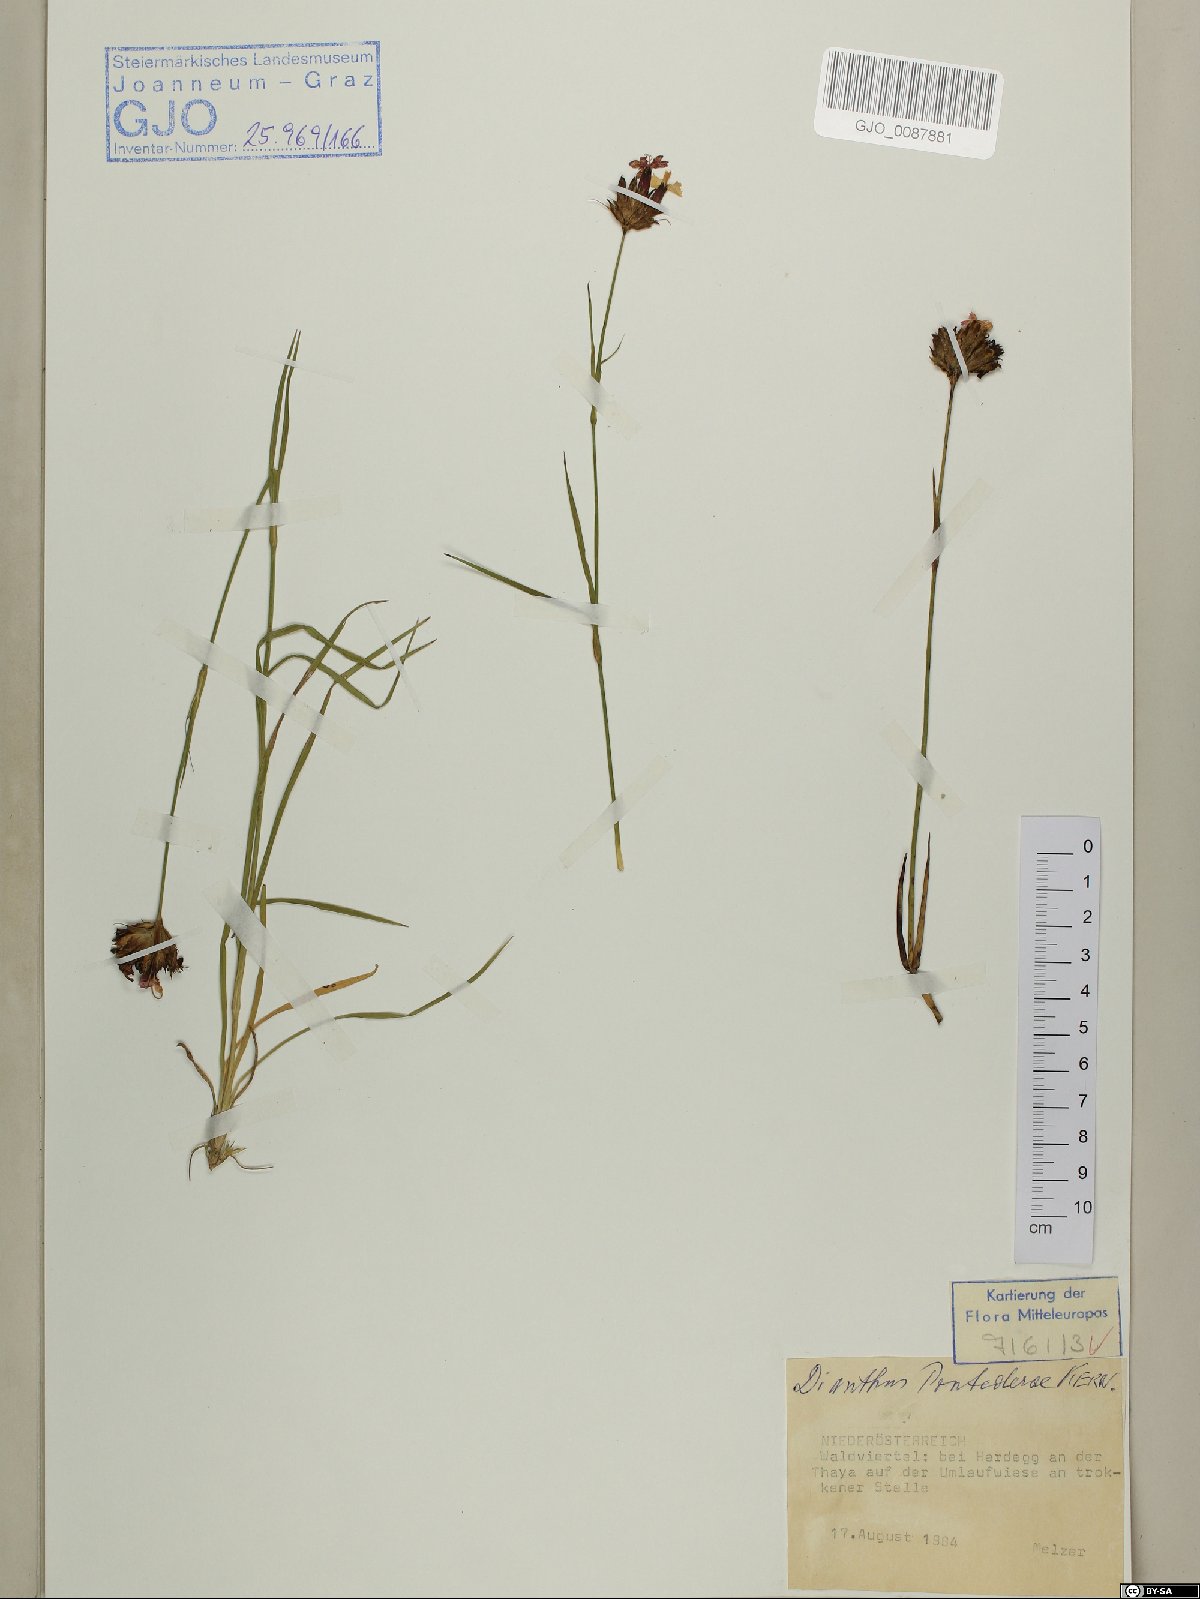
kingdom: Plantae
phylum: Tracheophyta
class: Magnoliopsida
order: Caryophyllales
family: Caryophyllaceae
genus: Dianthus
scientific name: Dianthus pontederae
